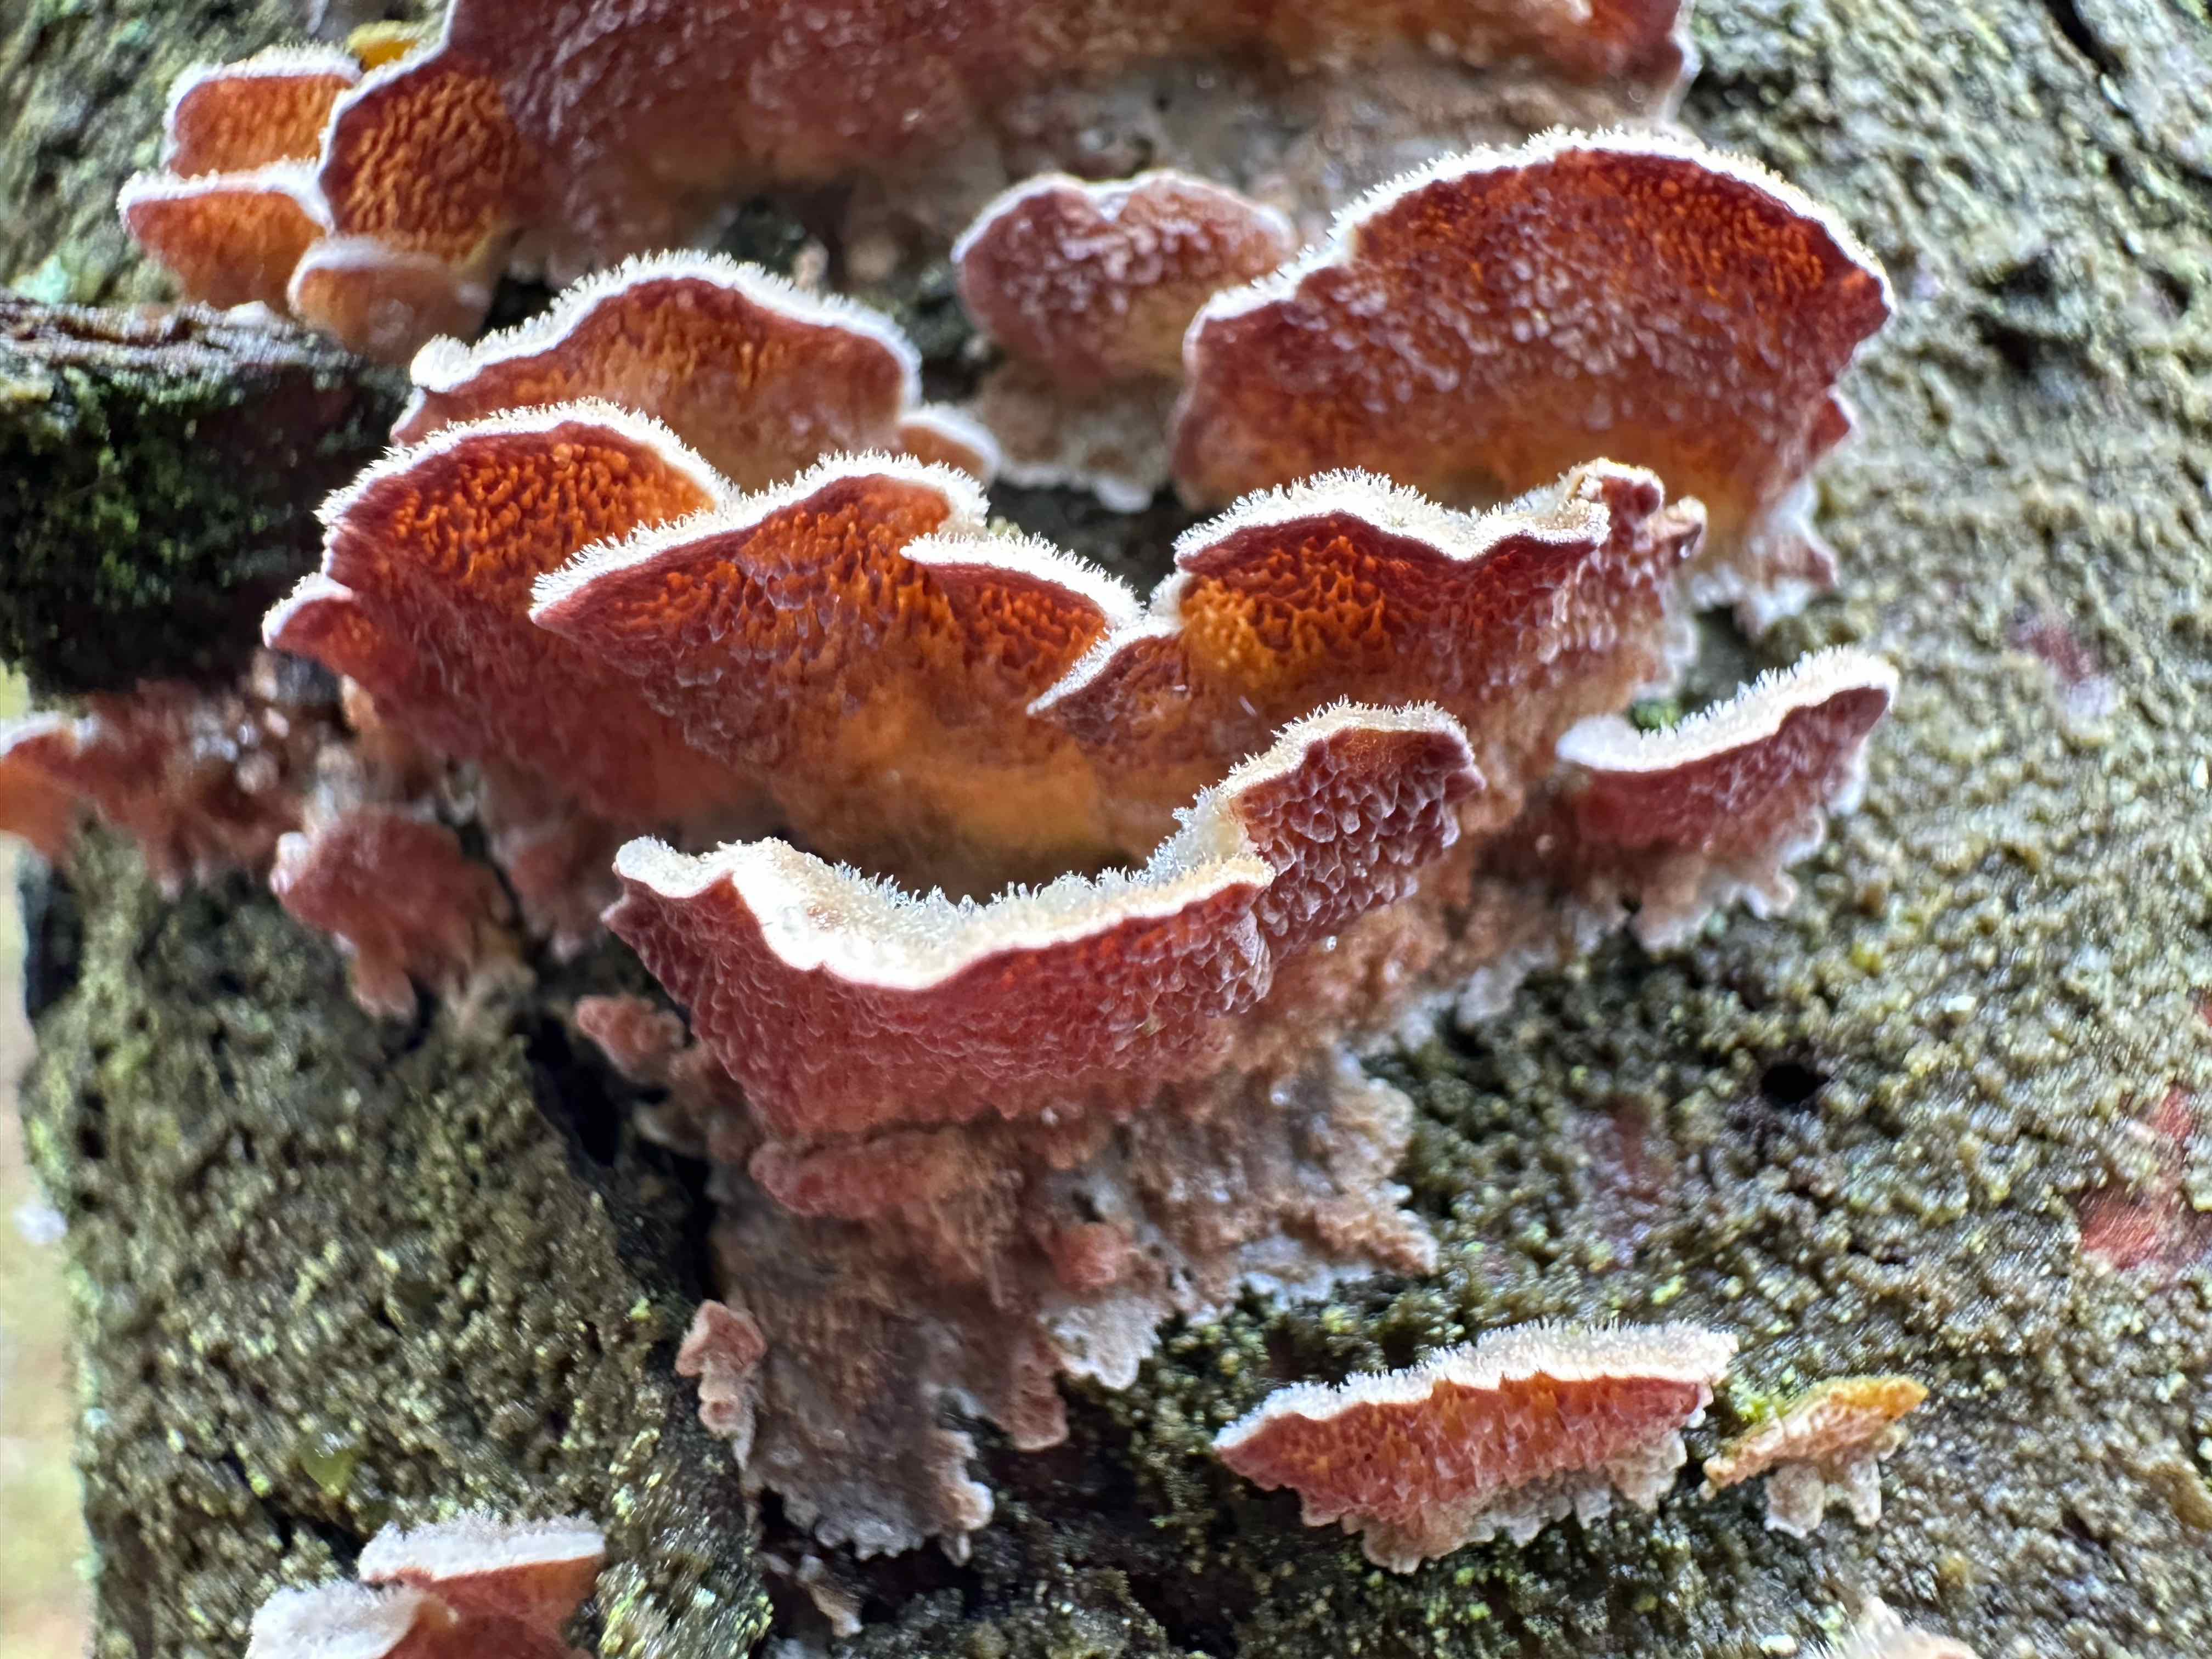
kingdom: Fungi
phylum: Basidiomycota
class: Agaricomycetes
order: Hymenochaetales
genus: Trichaptum
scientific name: Trichaptum fuscoviolaceum
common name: tandet violporesvamp
